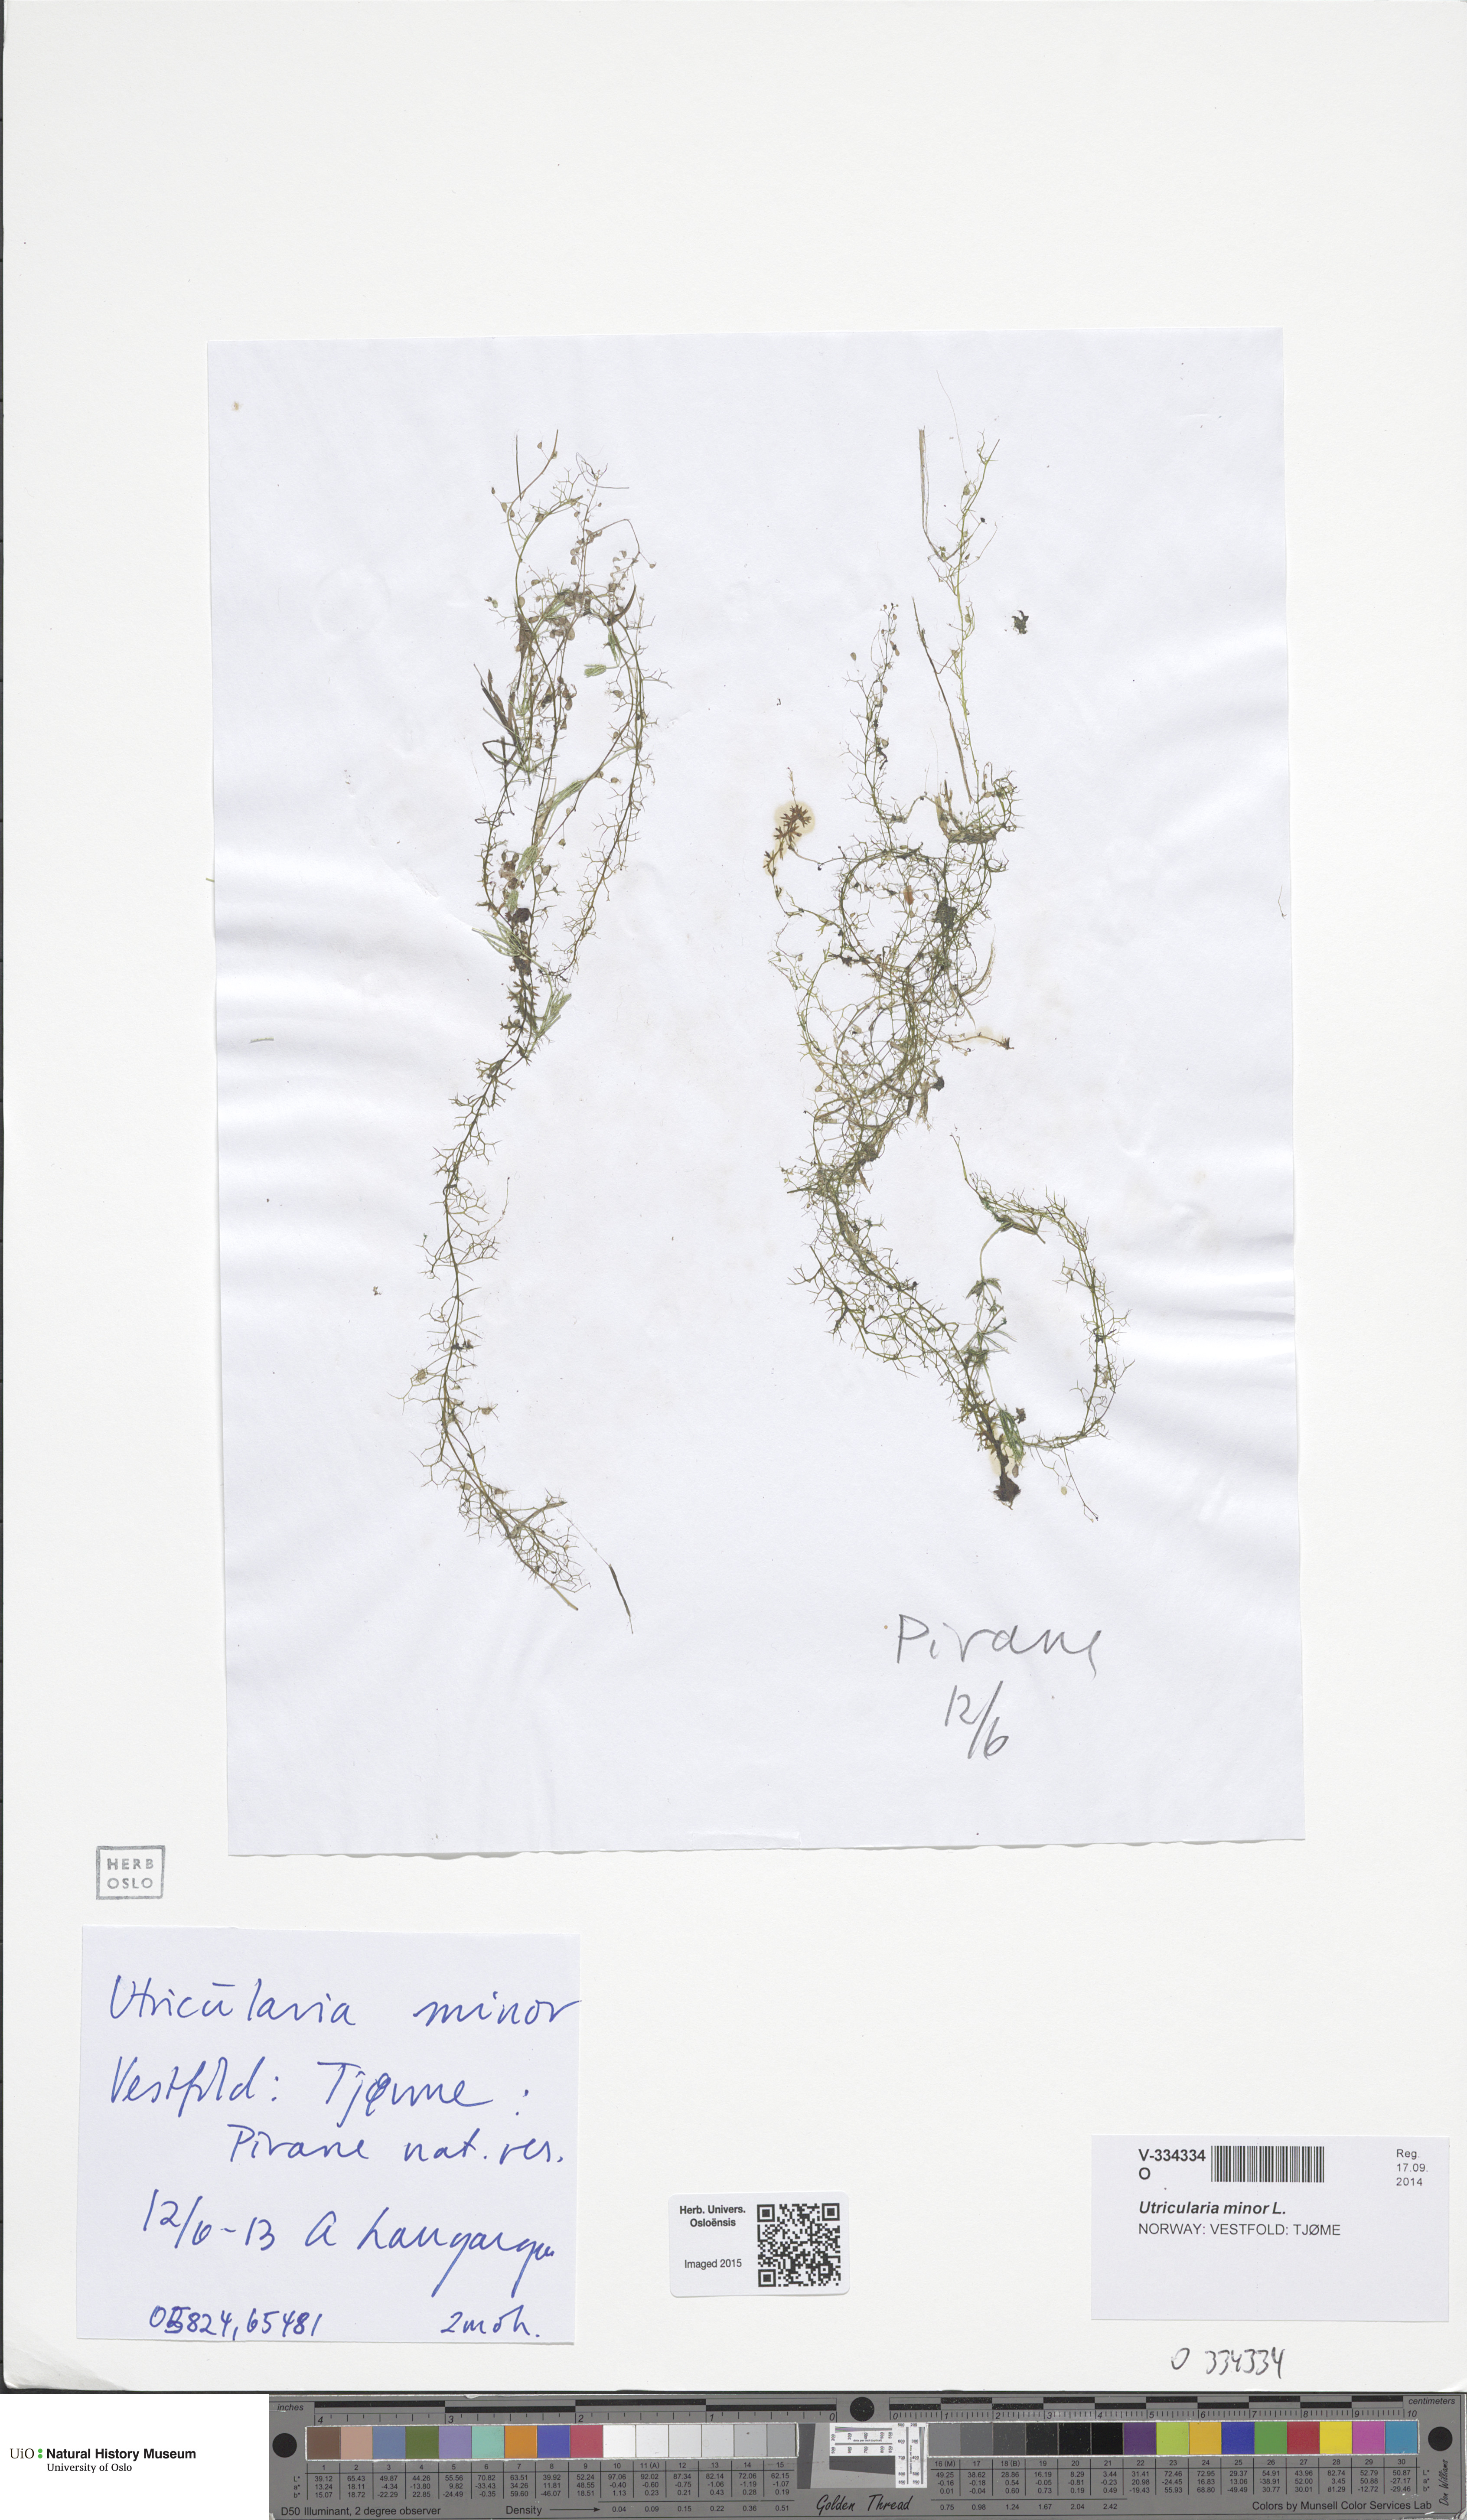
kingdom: Plantae
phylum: Tracheophyta
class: Magnoliopsida
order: Lamiales
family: Lentibulariaceae
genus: Utricularia
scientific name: Utricularia minor
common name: Lesser bladderwort
